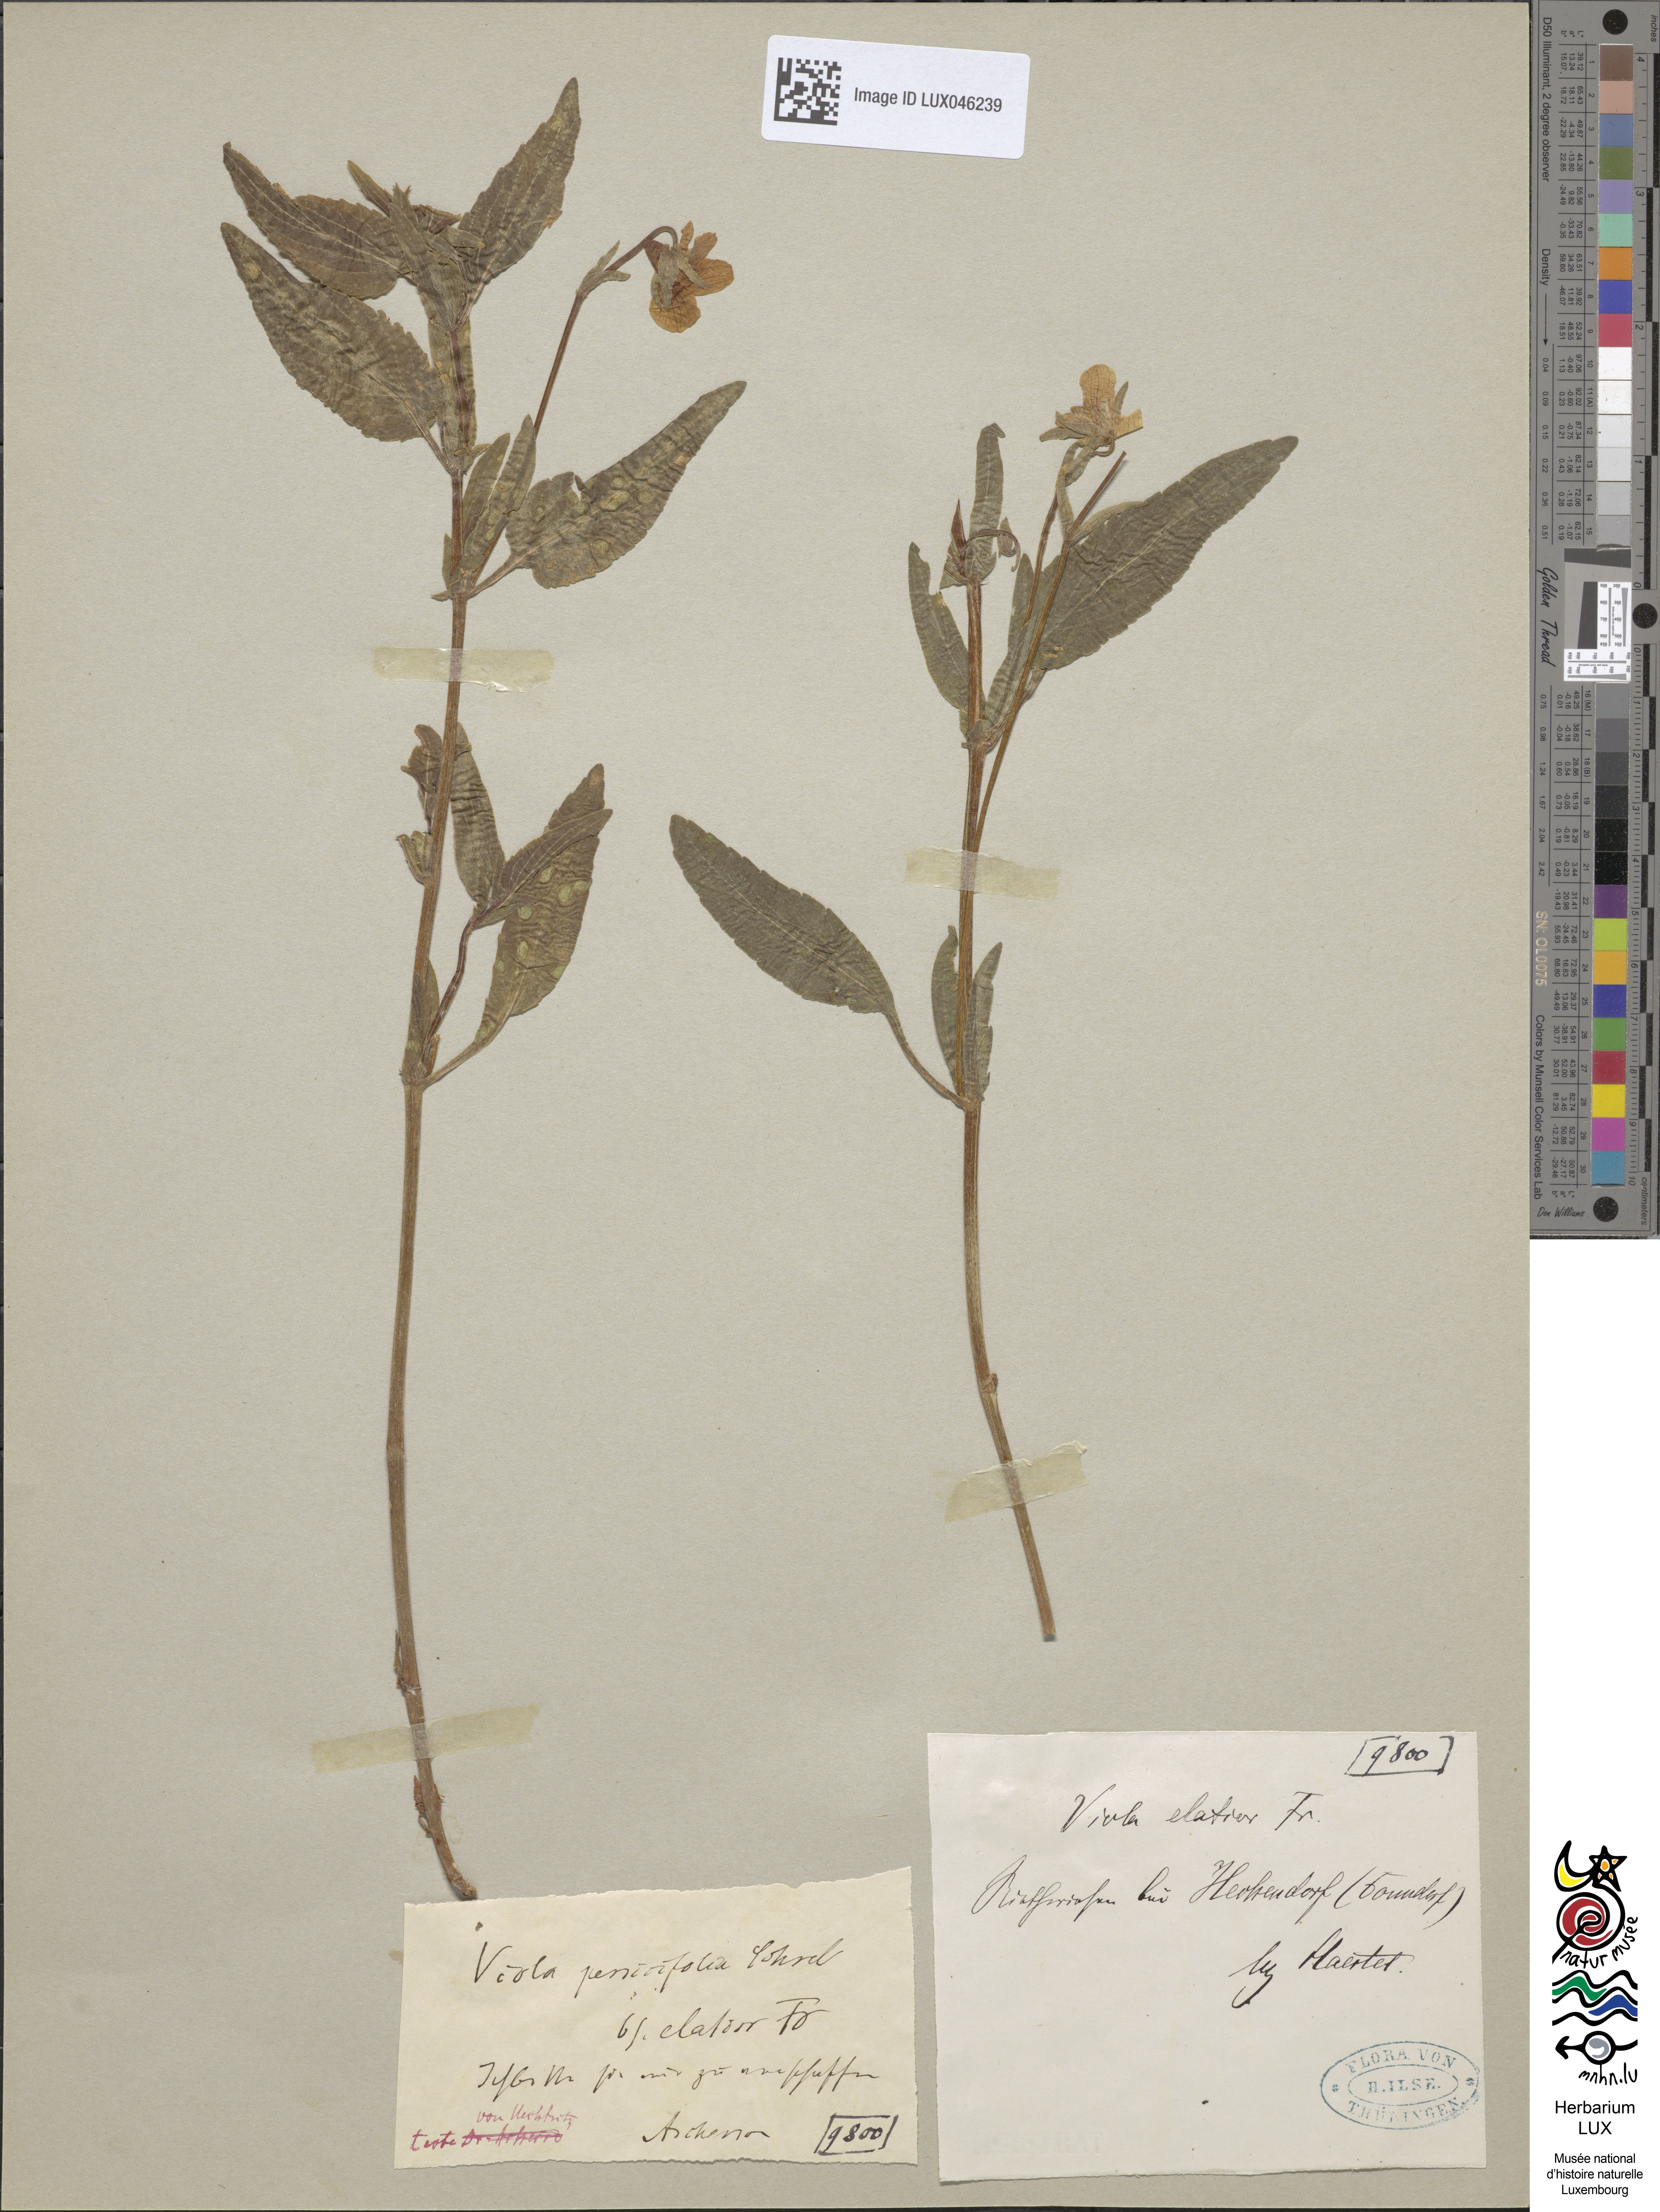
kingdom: Plantae
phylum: Tracheophyta
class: Magnoliopsida
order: Malpighiales
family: Violaceae
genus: Viola
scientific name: Viola elatior
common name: Tall violet
